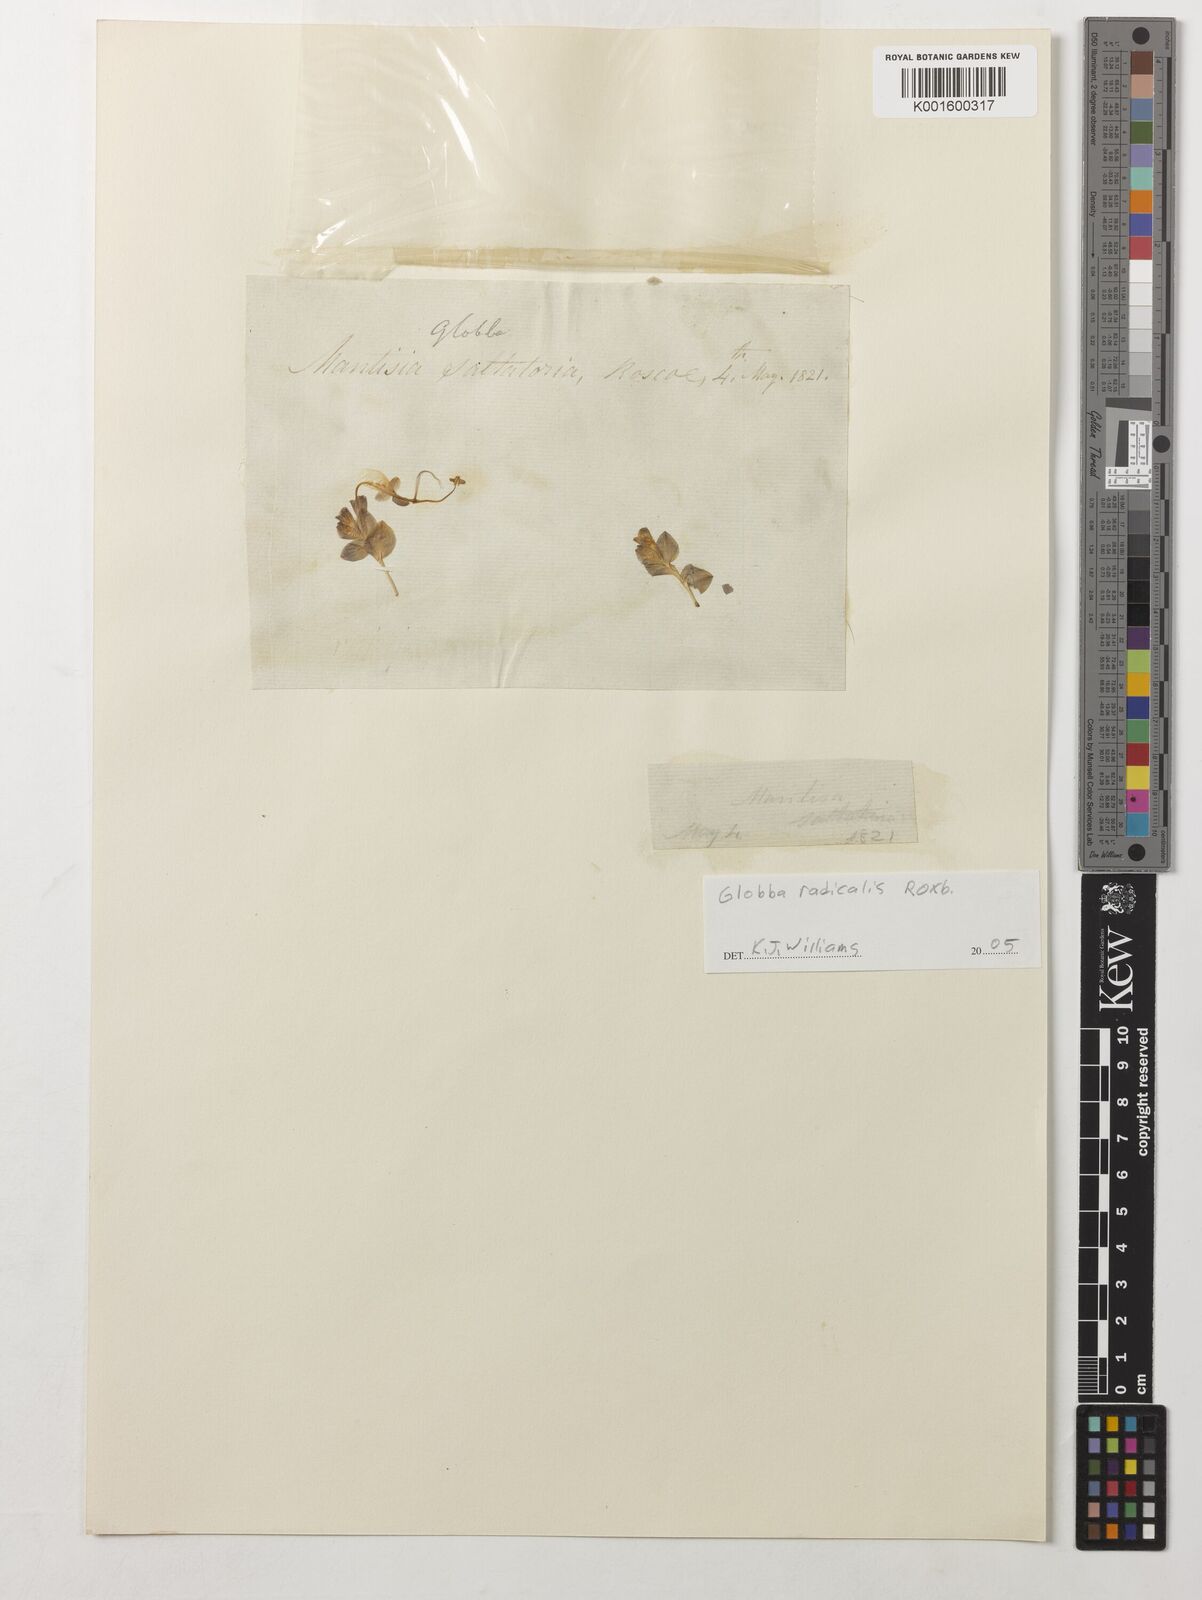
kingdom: Plantae
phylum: Tracheophyta
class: Liliopsida
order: Zingiberales
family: Zingiberaceae
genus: Globba
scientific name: Globba radicalis
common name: Dancing girl
